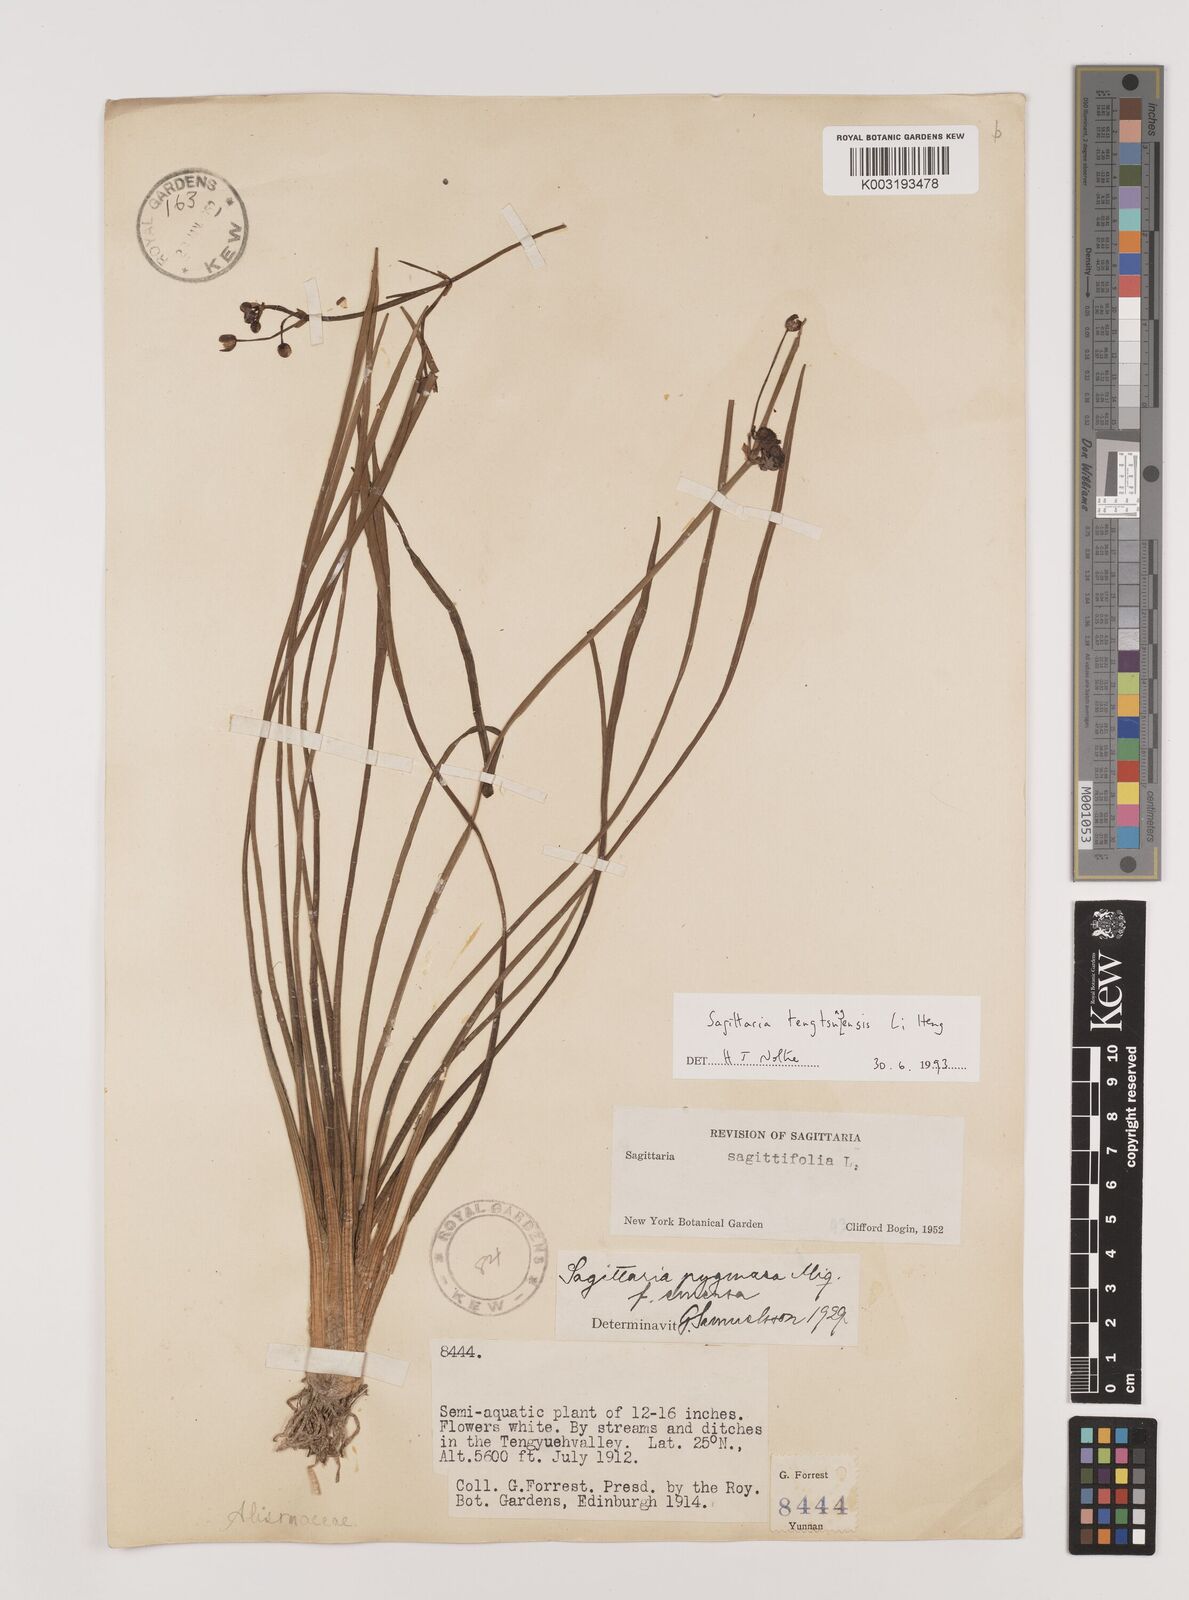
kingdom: Plantae
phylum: Tracheophyta
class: Liliopsida
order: Alismatales
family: Alismataceae
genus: Sagittaria
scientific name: Sagittaria tengtsungensis
